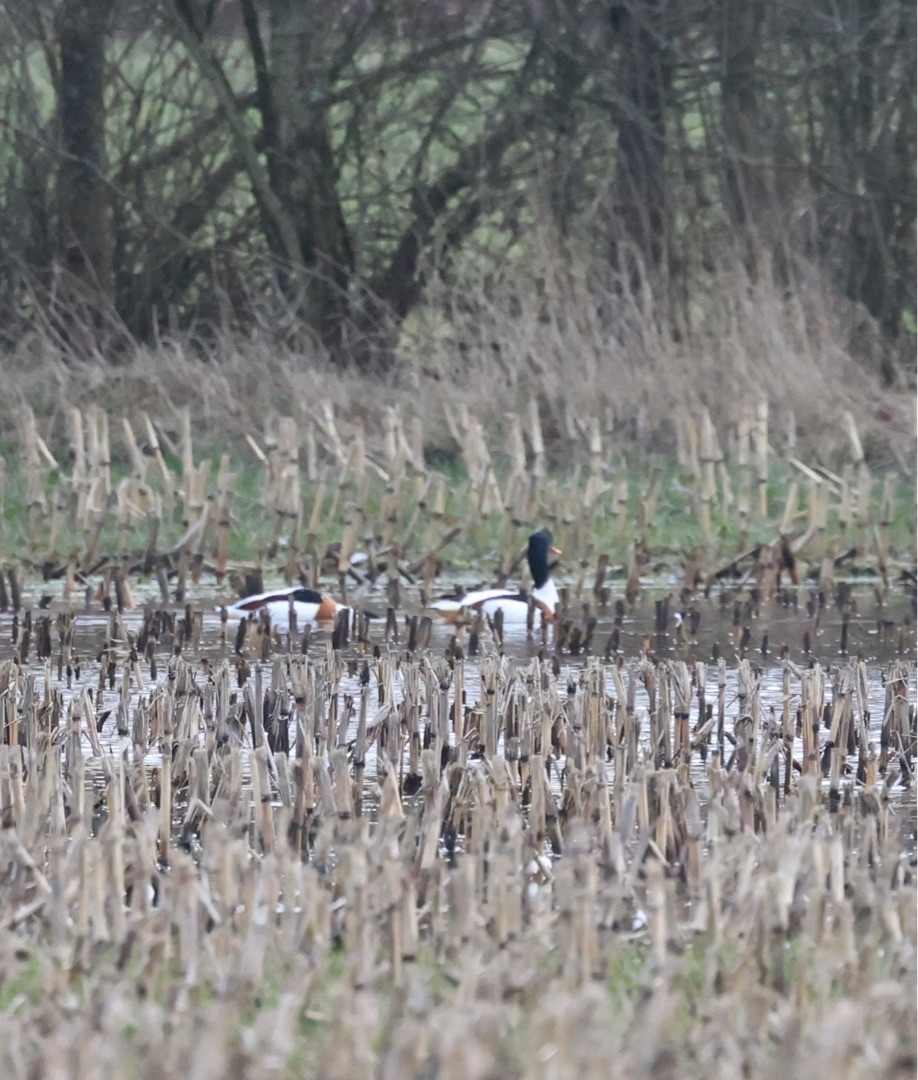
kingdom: Animalia
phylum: Chordata
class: Aves
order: Anseriformes
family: Anatidae
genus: Tadorna
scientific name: Tadorna tadorna
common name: Gravand
